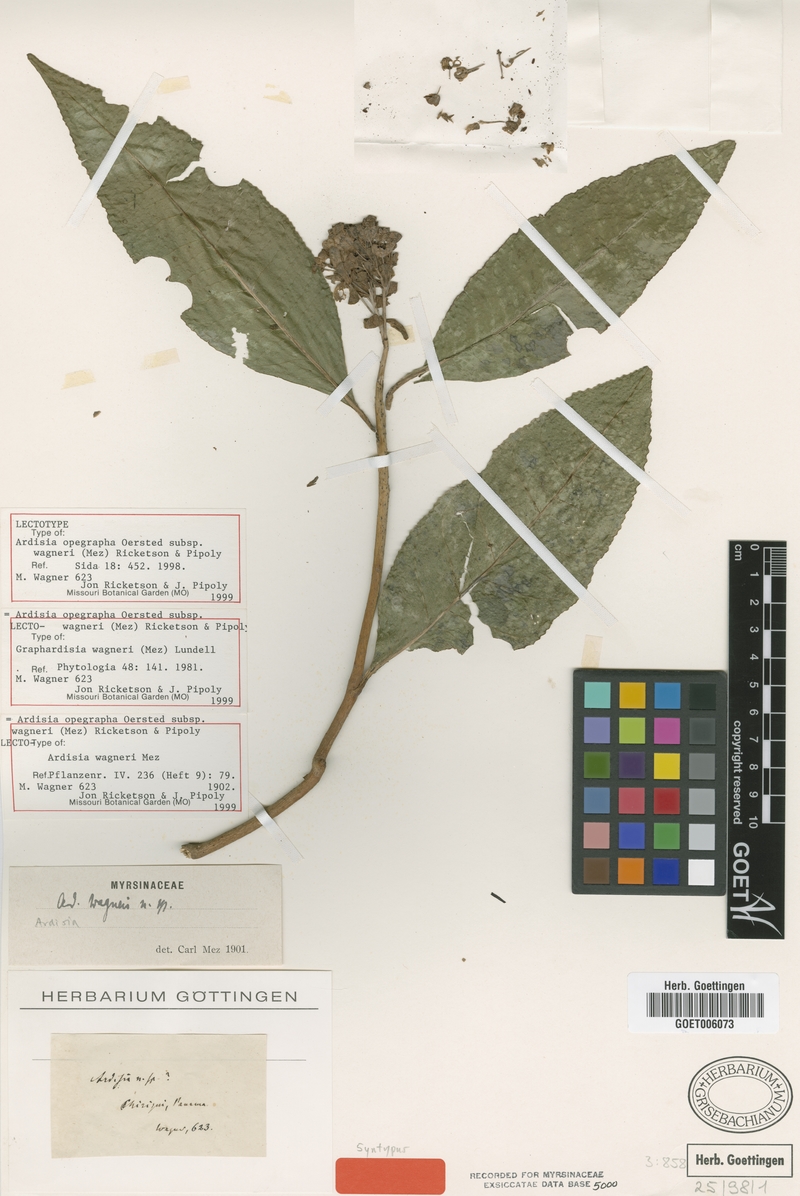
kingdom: Plantae
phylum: Tracheophyta
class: Magnoliopsida
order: Ericales
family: Primulaceae
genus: Ardisia
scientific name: Ardisia opegrapha
